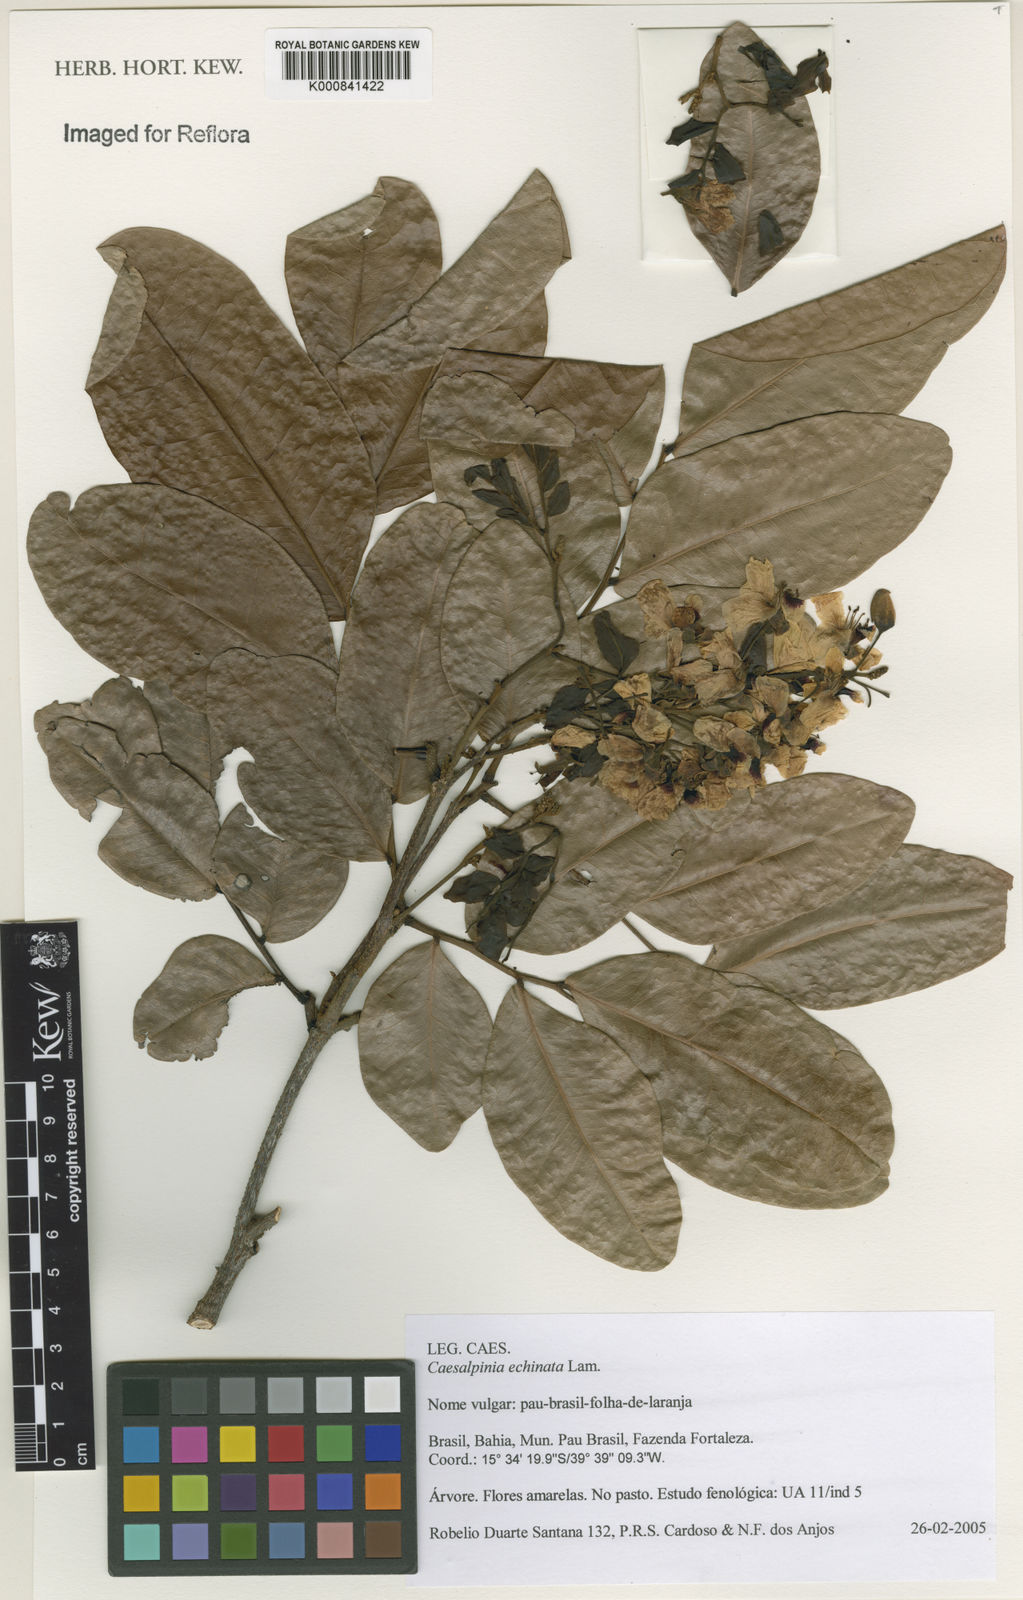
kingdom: Plantae
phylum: Tracheophyta
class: Magnoliopsida
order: Fabales
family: Fabaceae
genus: Paubrasilia
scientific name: Paubrasilia echinata
